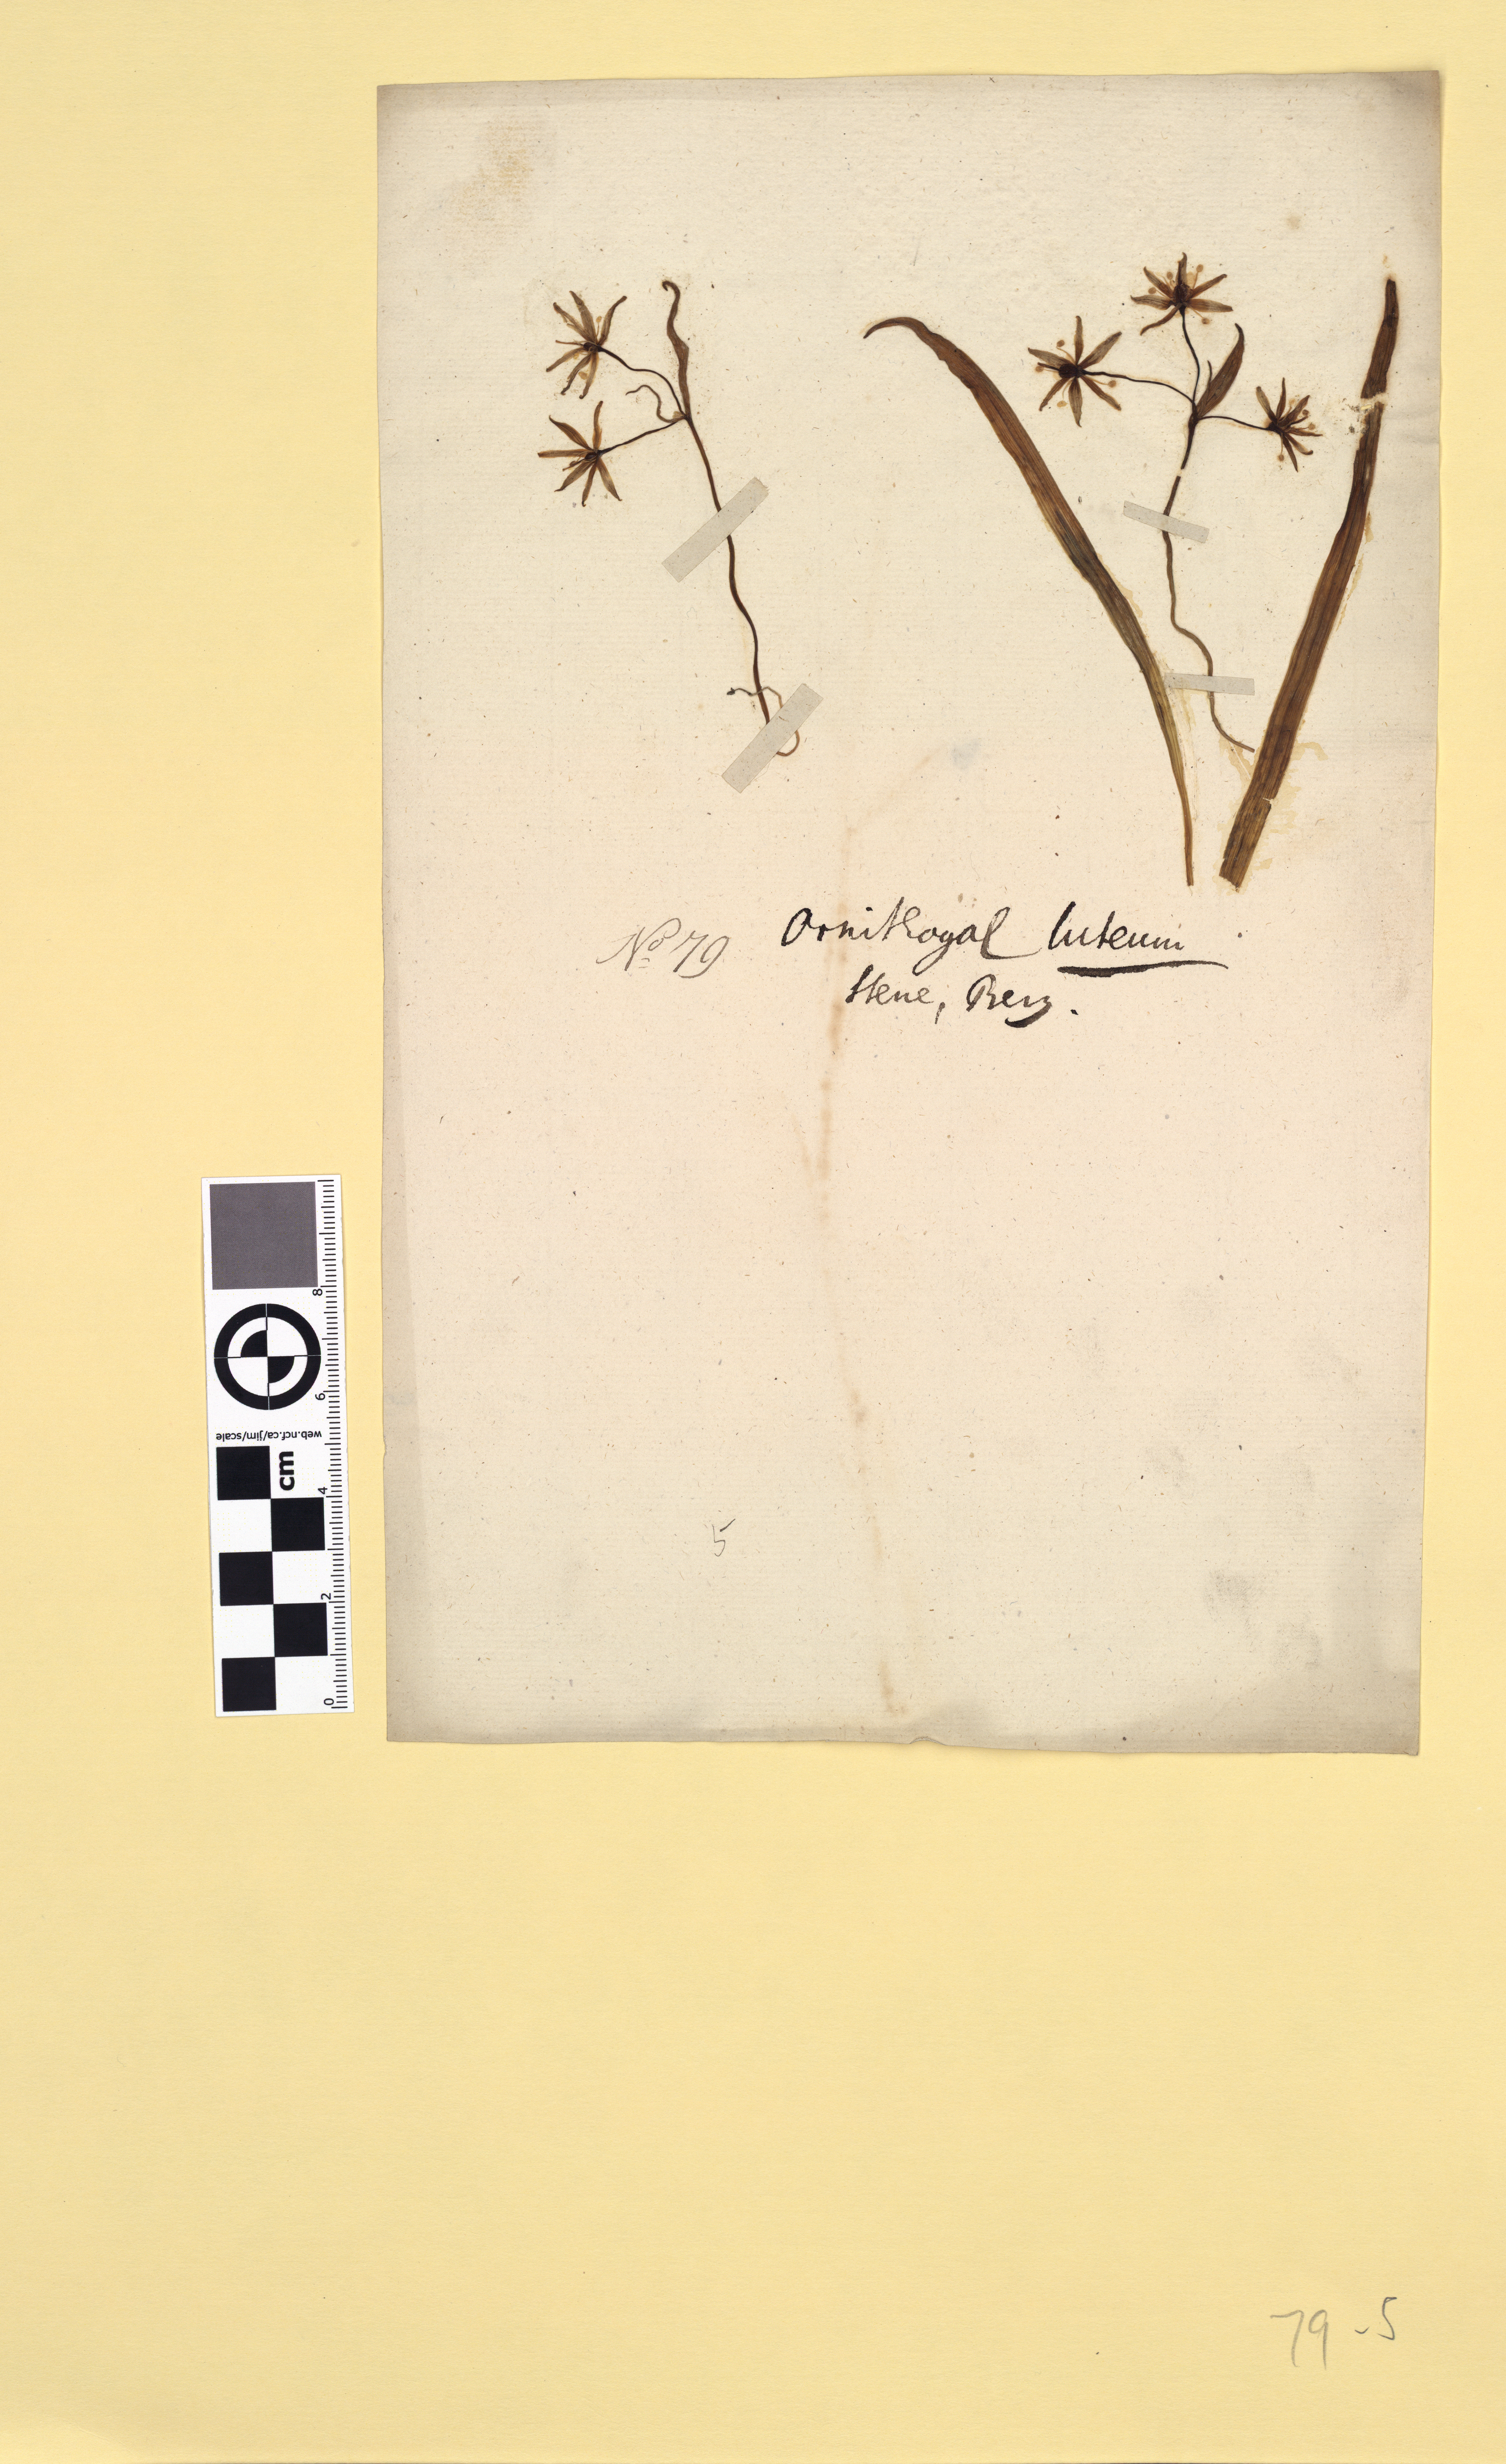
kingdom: Plantae
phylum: Tracheophyta
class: Liliopsida
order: Liliales
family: Liliaceae
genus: Gagea
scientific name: Gagea lutea
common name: Yellow star-of-bethlehem
